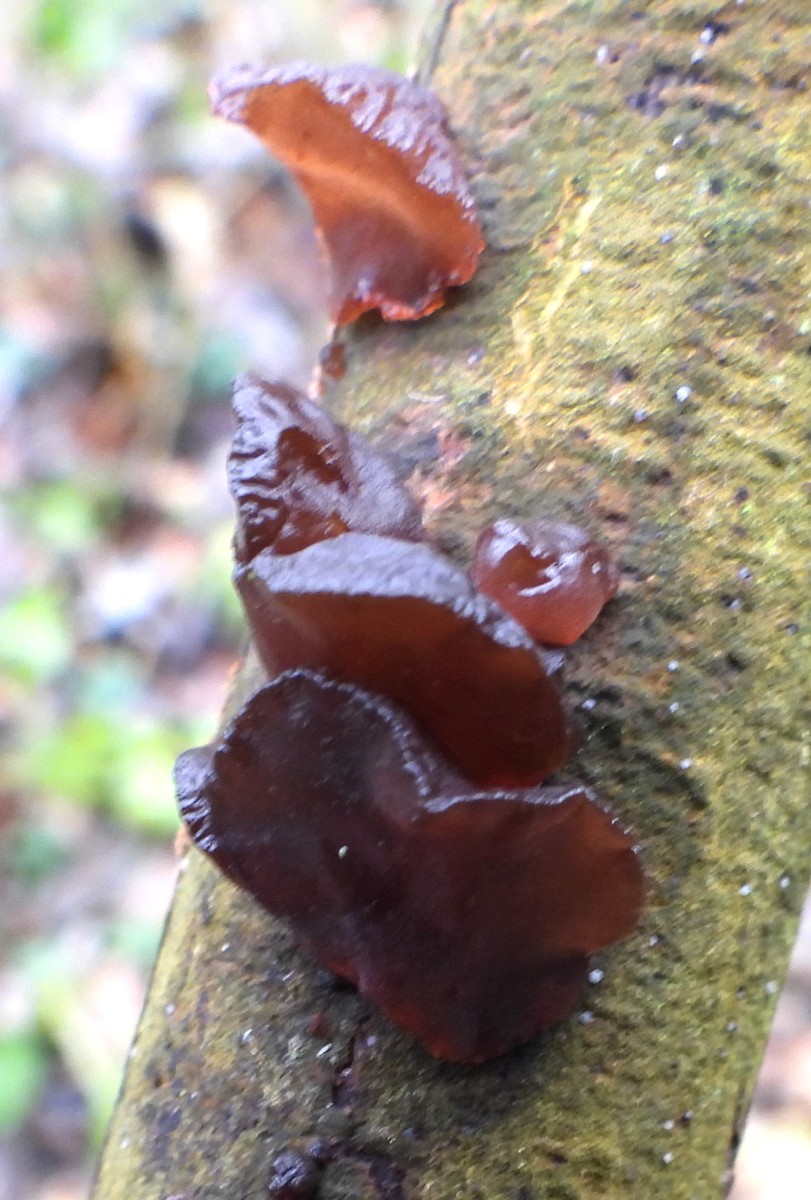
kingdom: Fungi
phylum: Basidiomycota
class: Agaricomycetes
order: Auriculariales
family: Auriculariaceae
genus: Exidia
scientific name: Exidia recisa
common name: pile-bævretop
